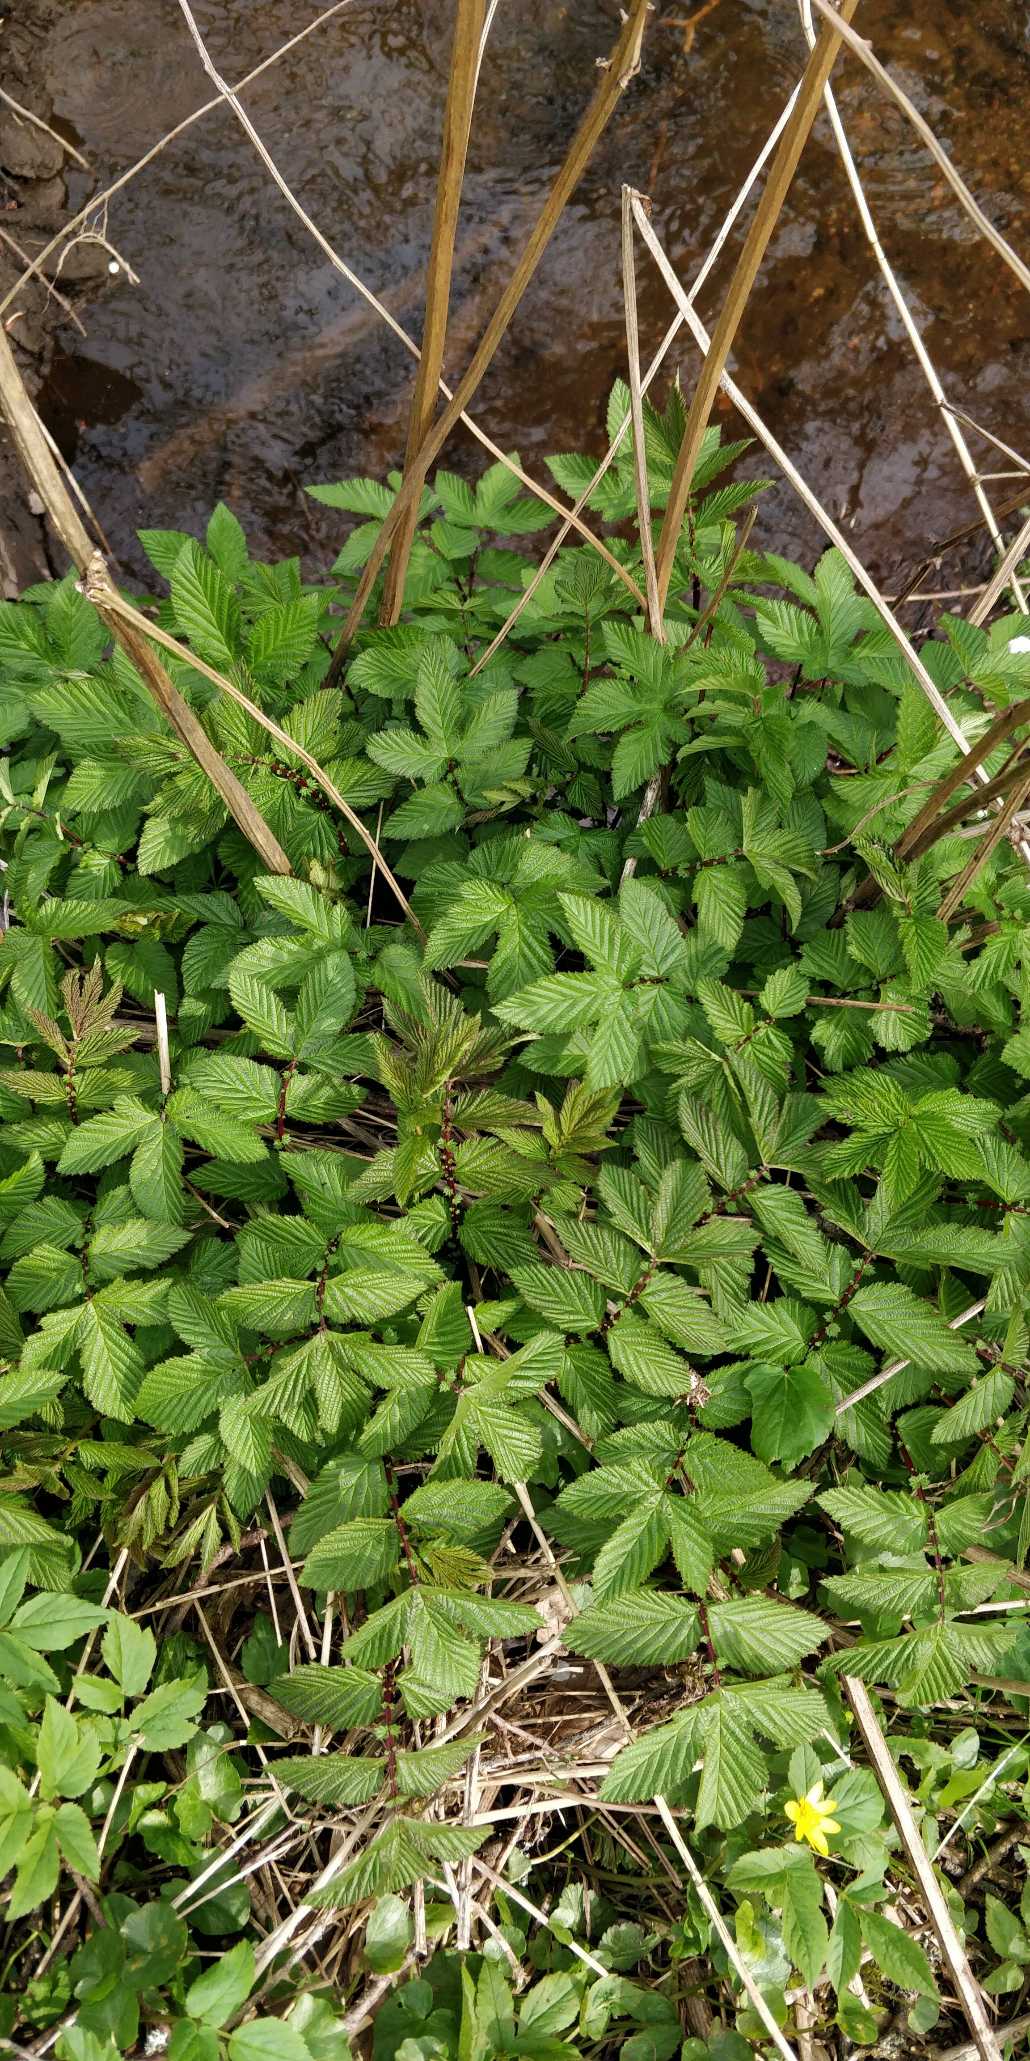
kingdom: Plantae
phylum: Tracheophyta
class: Magnoliopsida
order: Rosales
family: Rosaceae
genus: Filipendula
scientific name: Filipendula ulmaria
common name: Almindelig mjødurt
